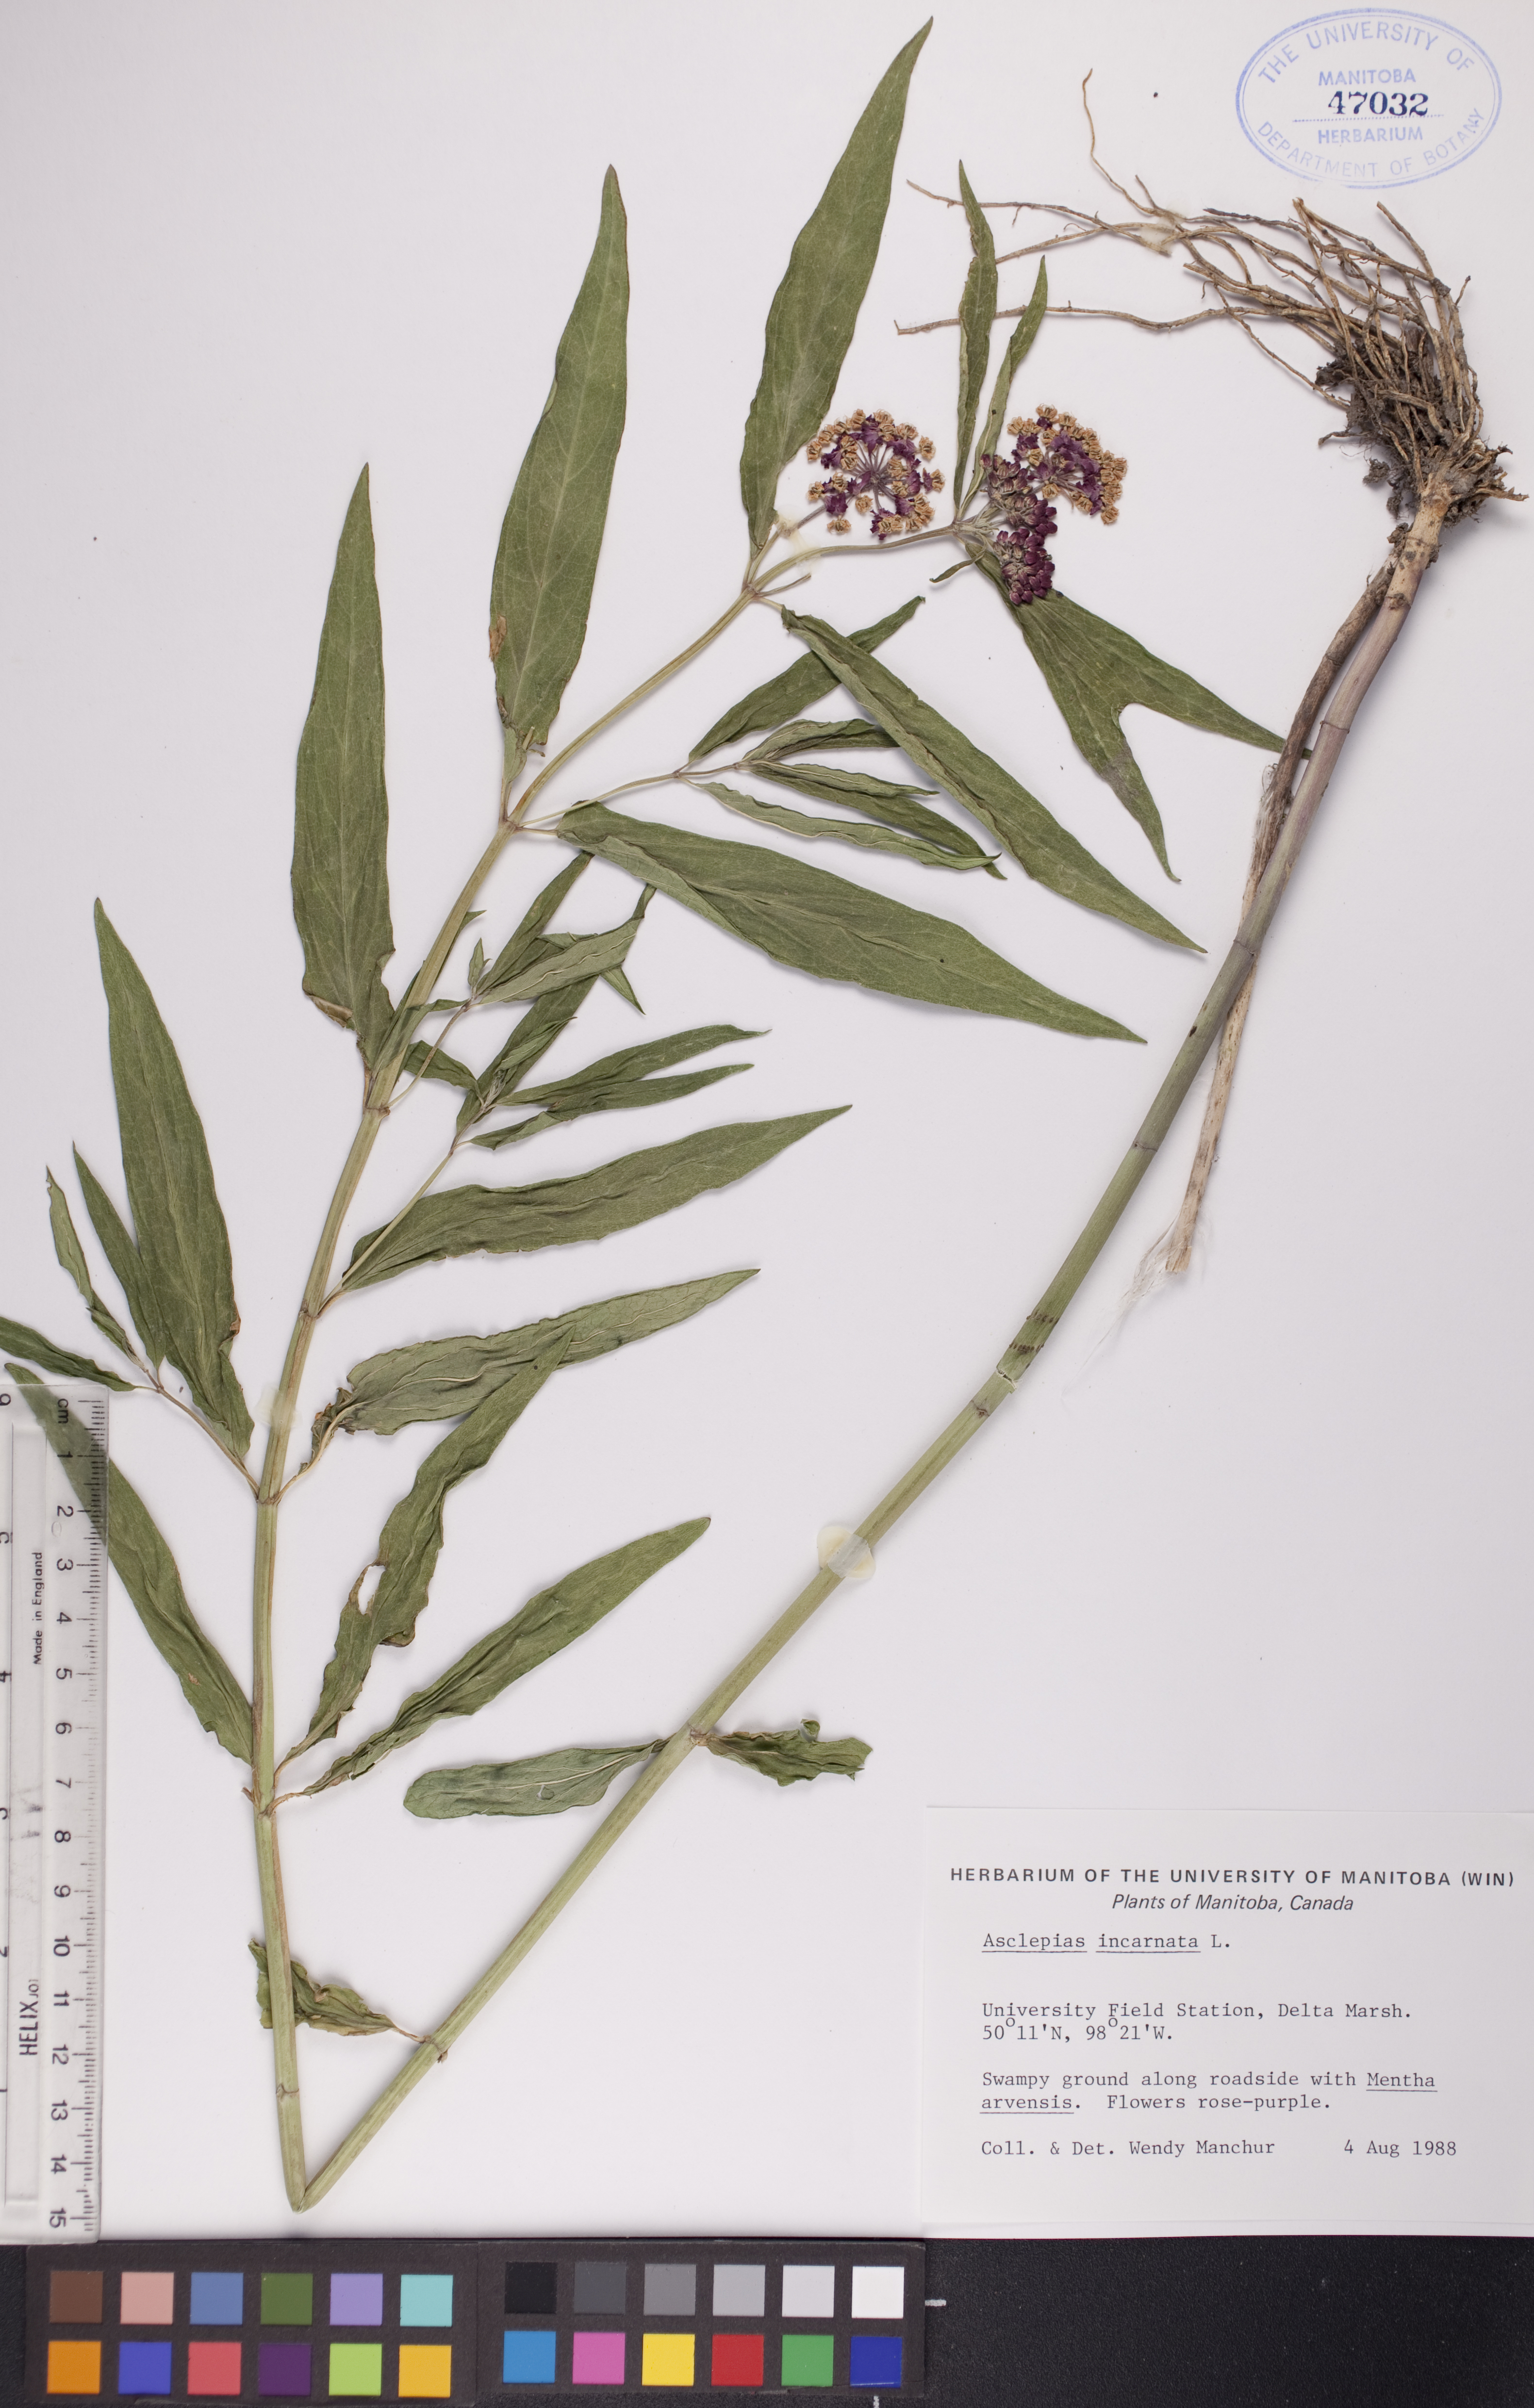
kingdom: Plantae
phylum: Tracheophyta
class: Magnoliopsida
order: Gentianales
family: Apocynaceae
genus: Asclepias
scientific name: Asclepias incarnata
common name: Swamp milkweed
